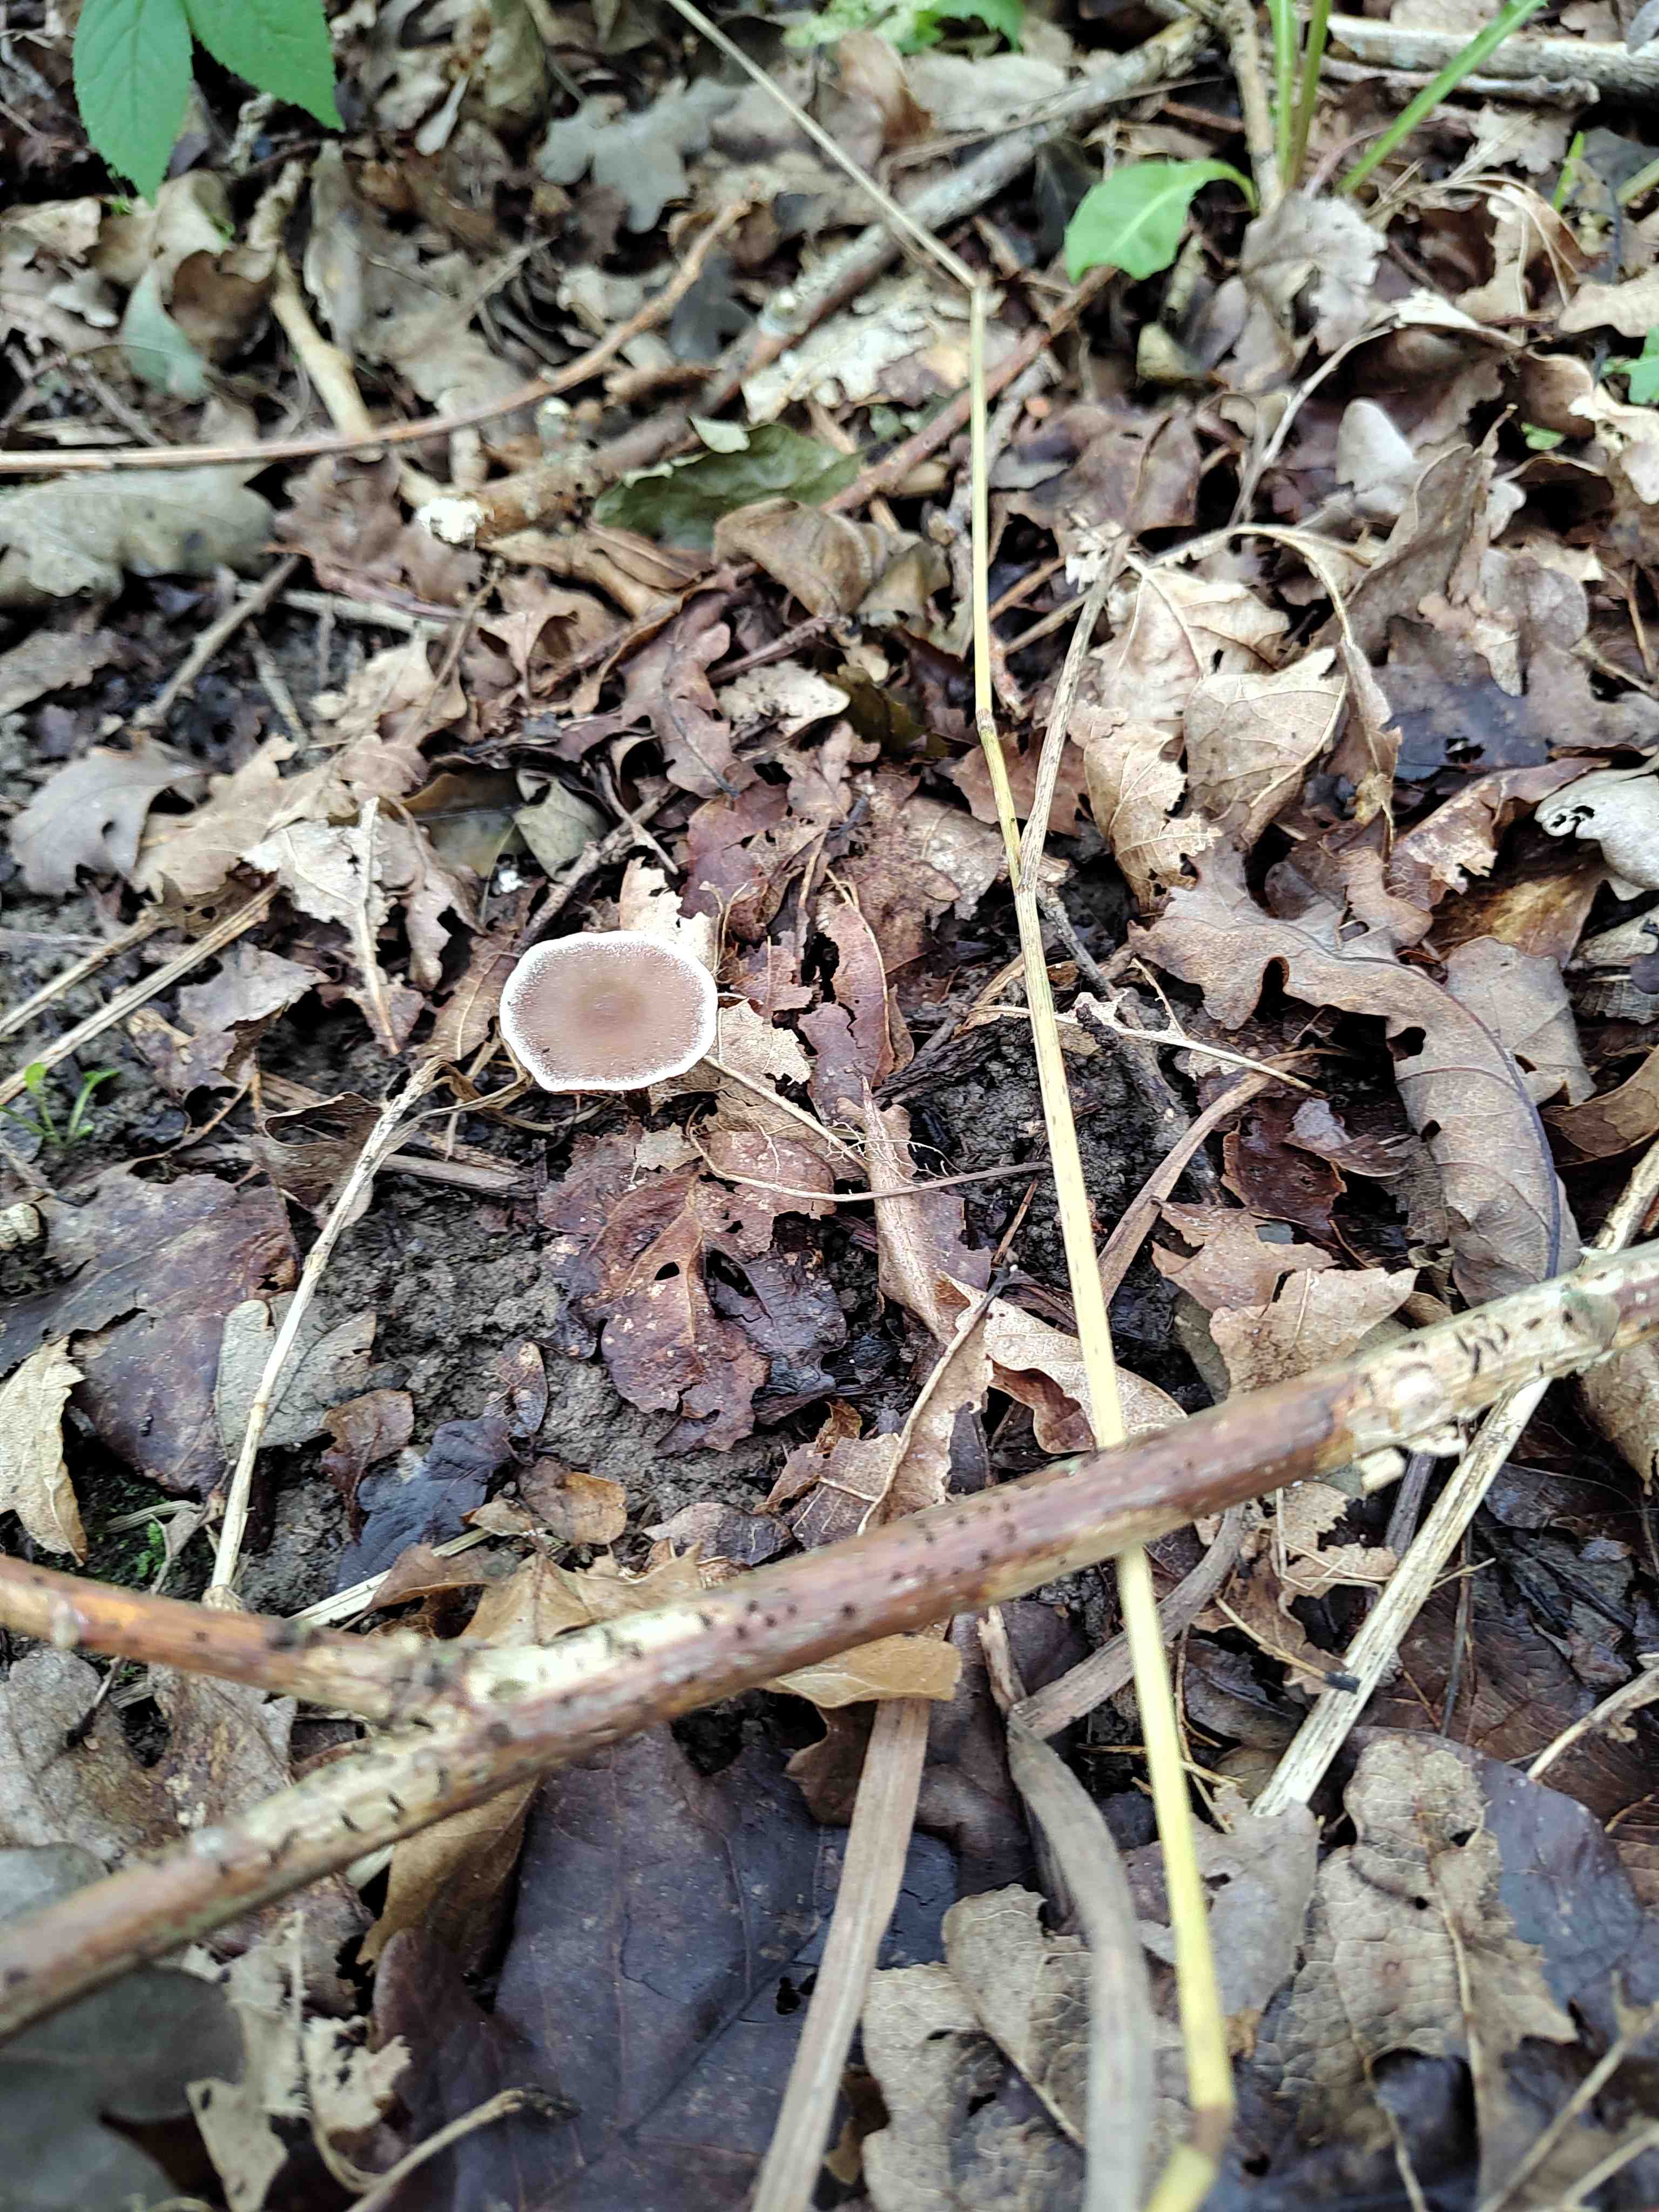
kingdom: Fungi
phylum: Basidiomycota
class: Agaricomycetes
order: Agaricales
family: Cortinariaceae
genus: Cortinarius
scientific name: Cortinarius
